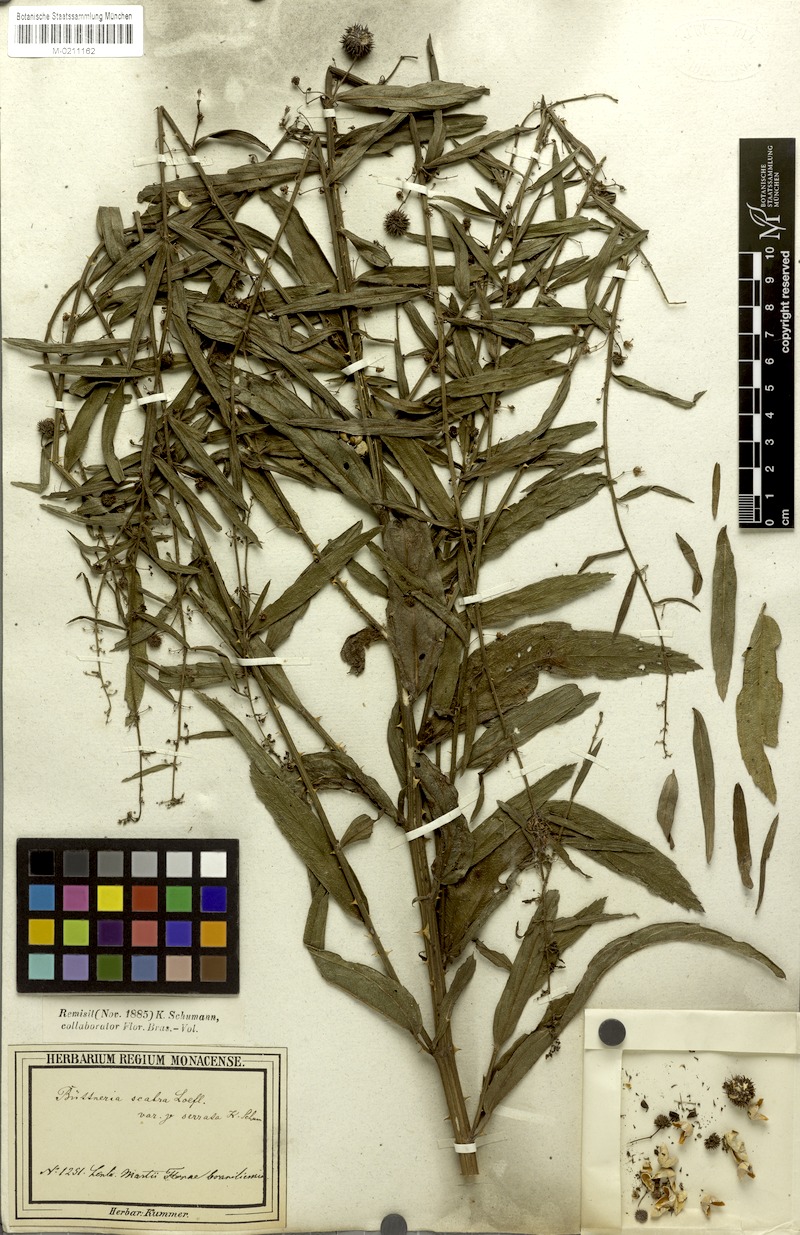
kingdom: Plantae
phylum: Tracheophyta
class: Magnoliopsida
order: Malvales
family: Malvaceae
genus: Byttneria
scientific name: Byttneria scabra
